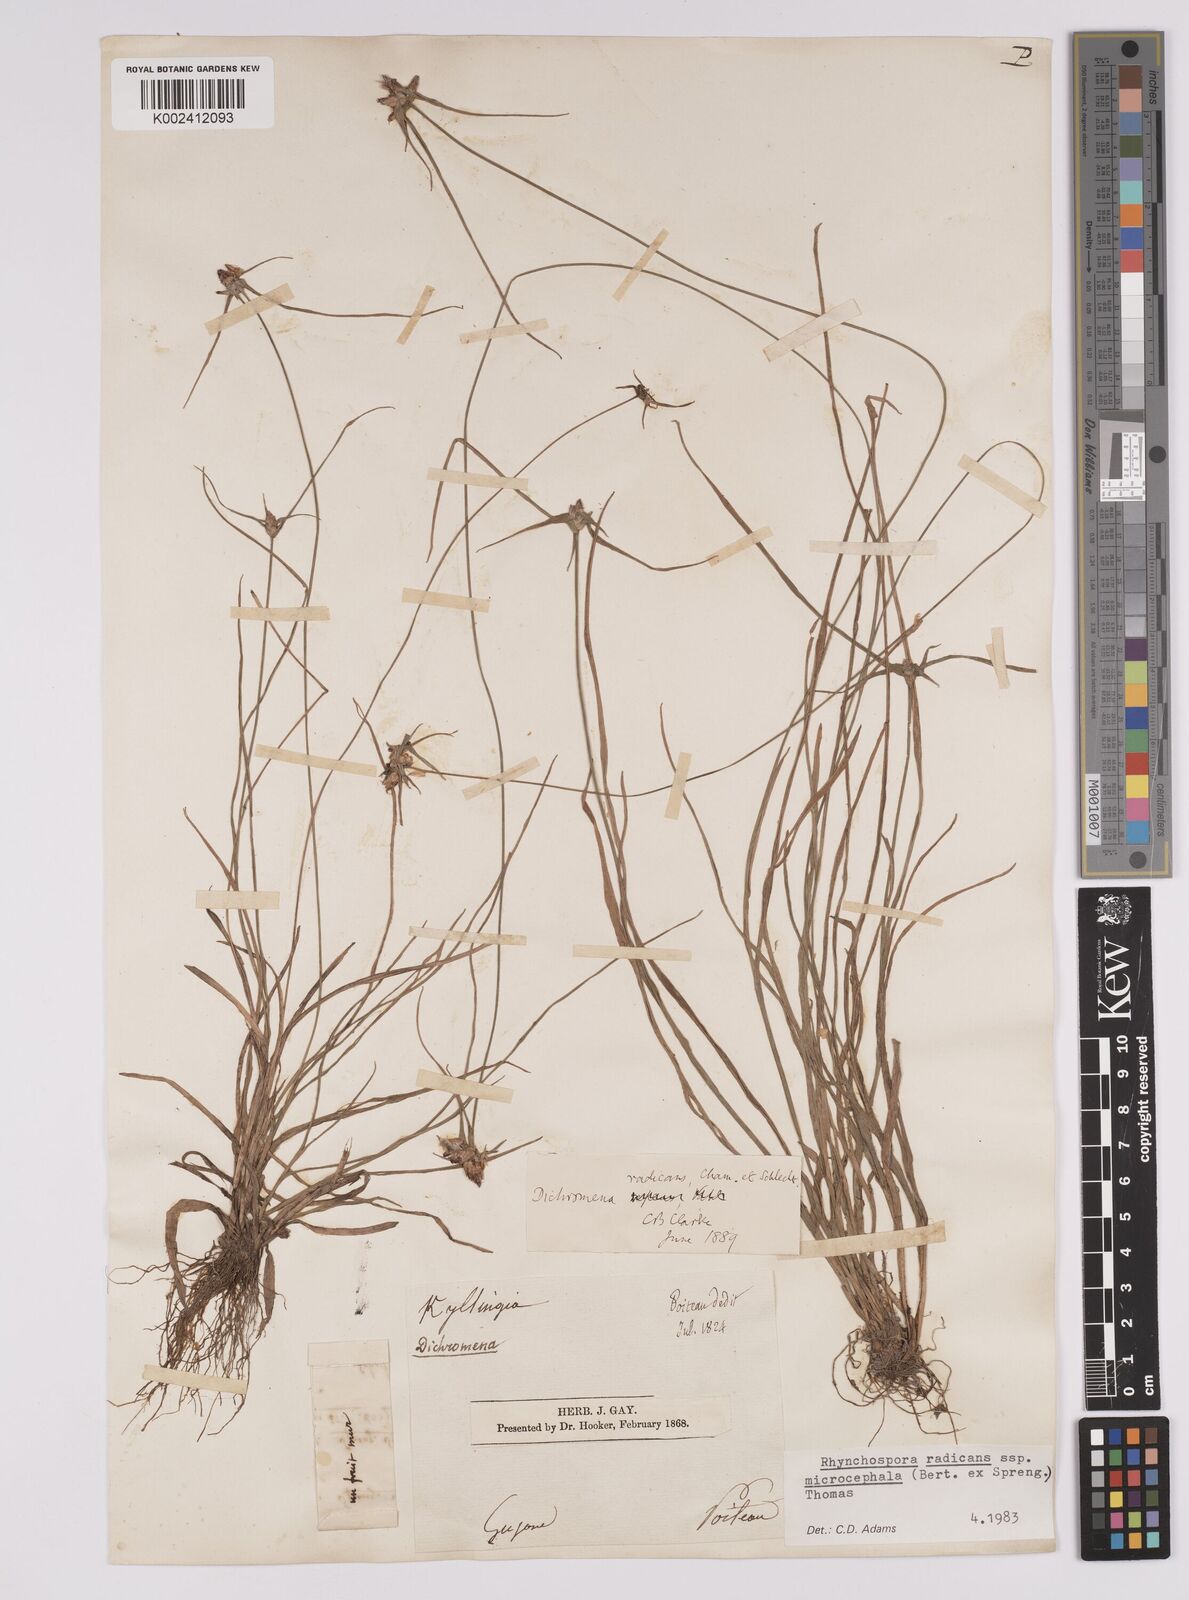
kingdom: Plantae
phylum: Tracheophyta
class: Liliopsida
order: Poales
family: Cyperaceae
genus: Rhynchospora
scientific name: Rhynchospora radicans
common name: Tropical whitetop
